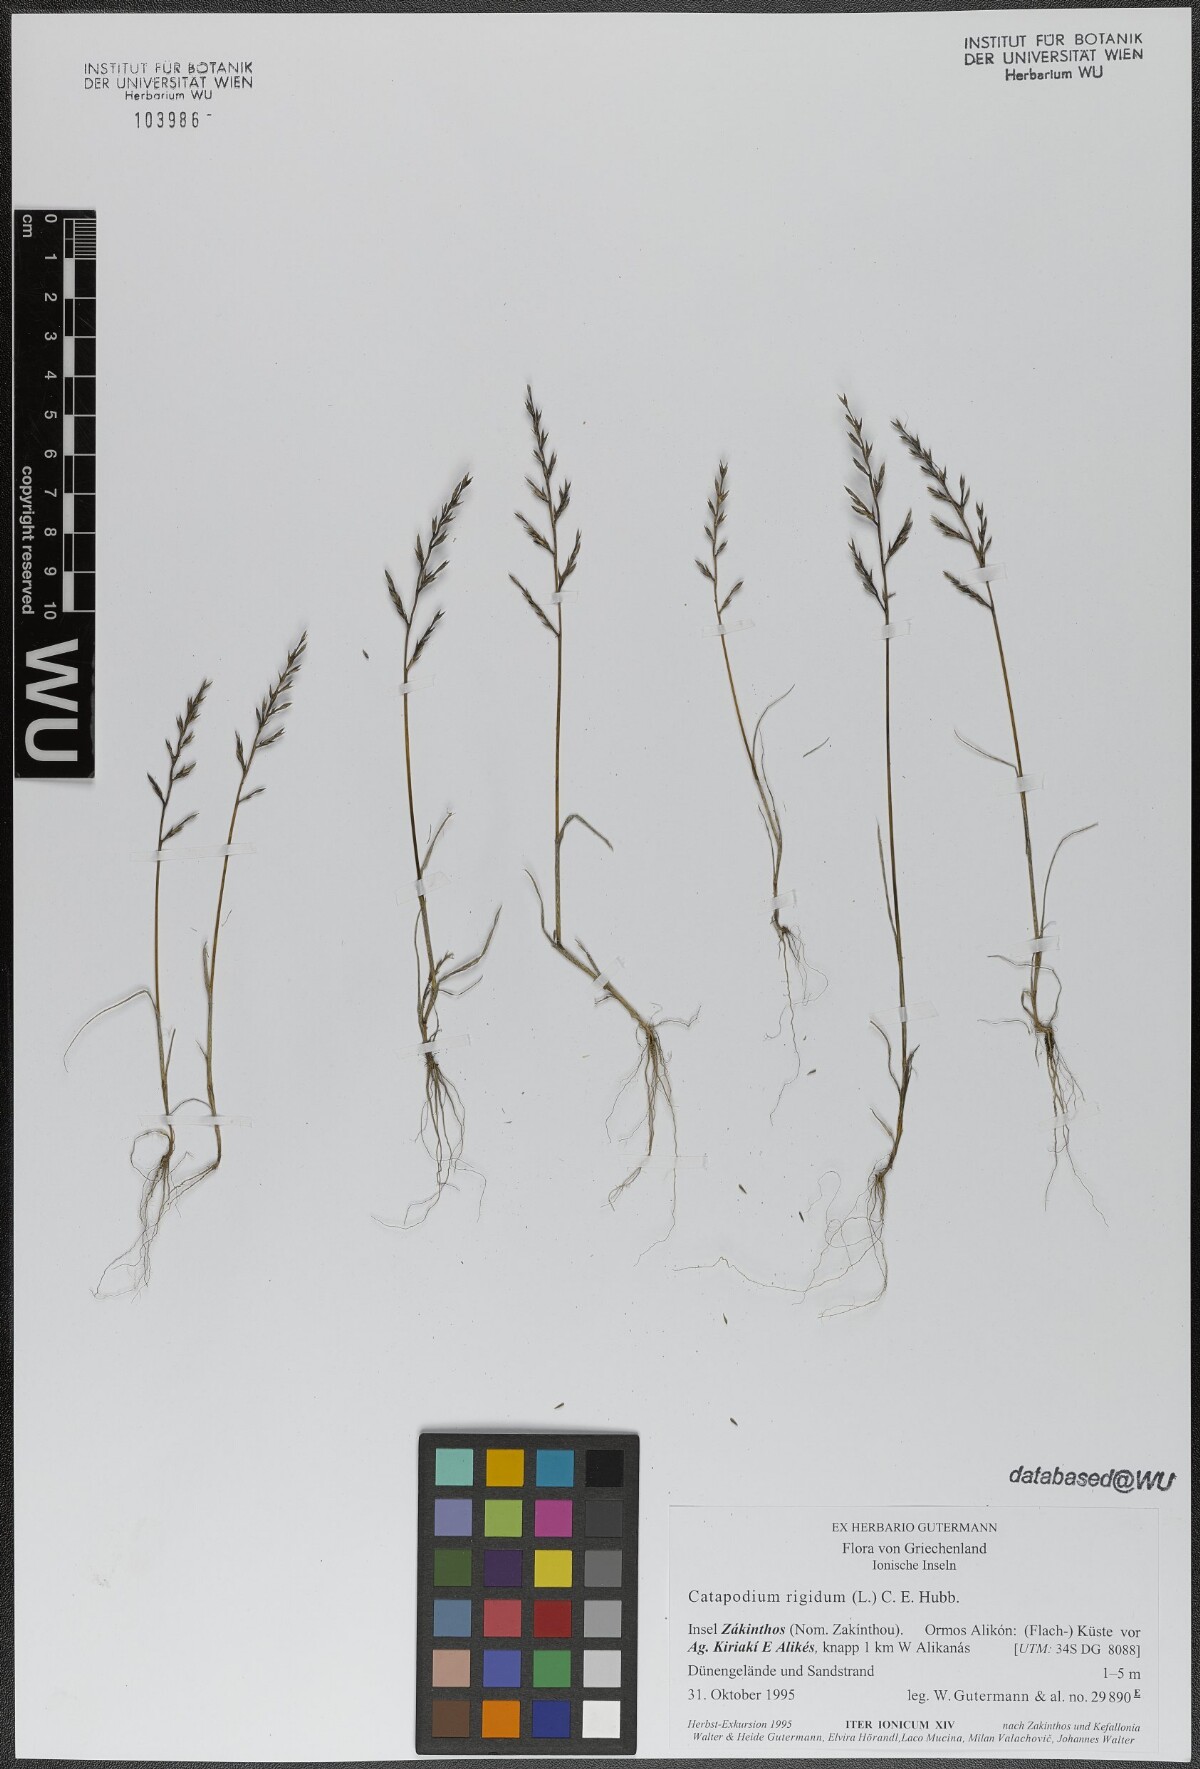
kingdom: Plantae
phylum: Tracheophyta
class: Liliopsida
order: Poales
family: Poaceae
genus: Catapodium
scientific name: Catapodium rigidum
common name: Fern-grass
